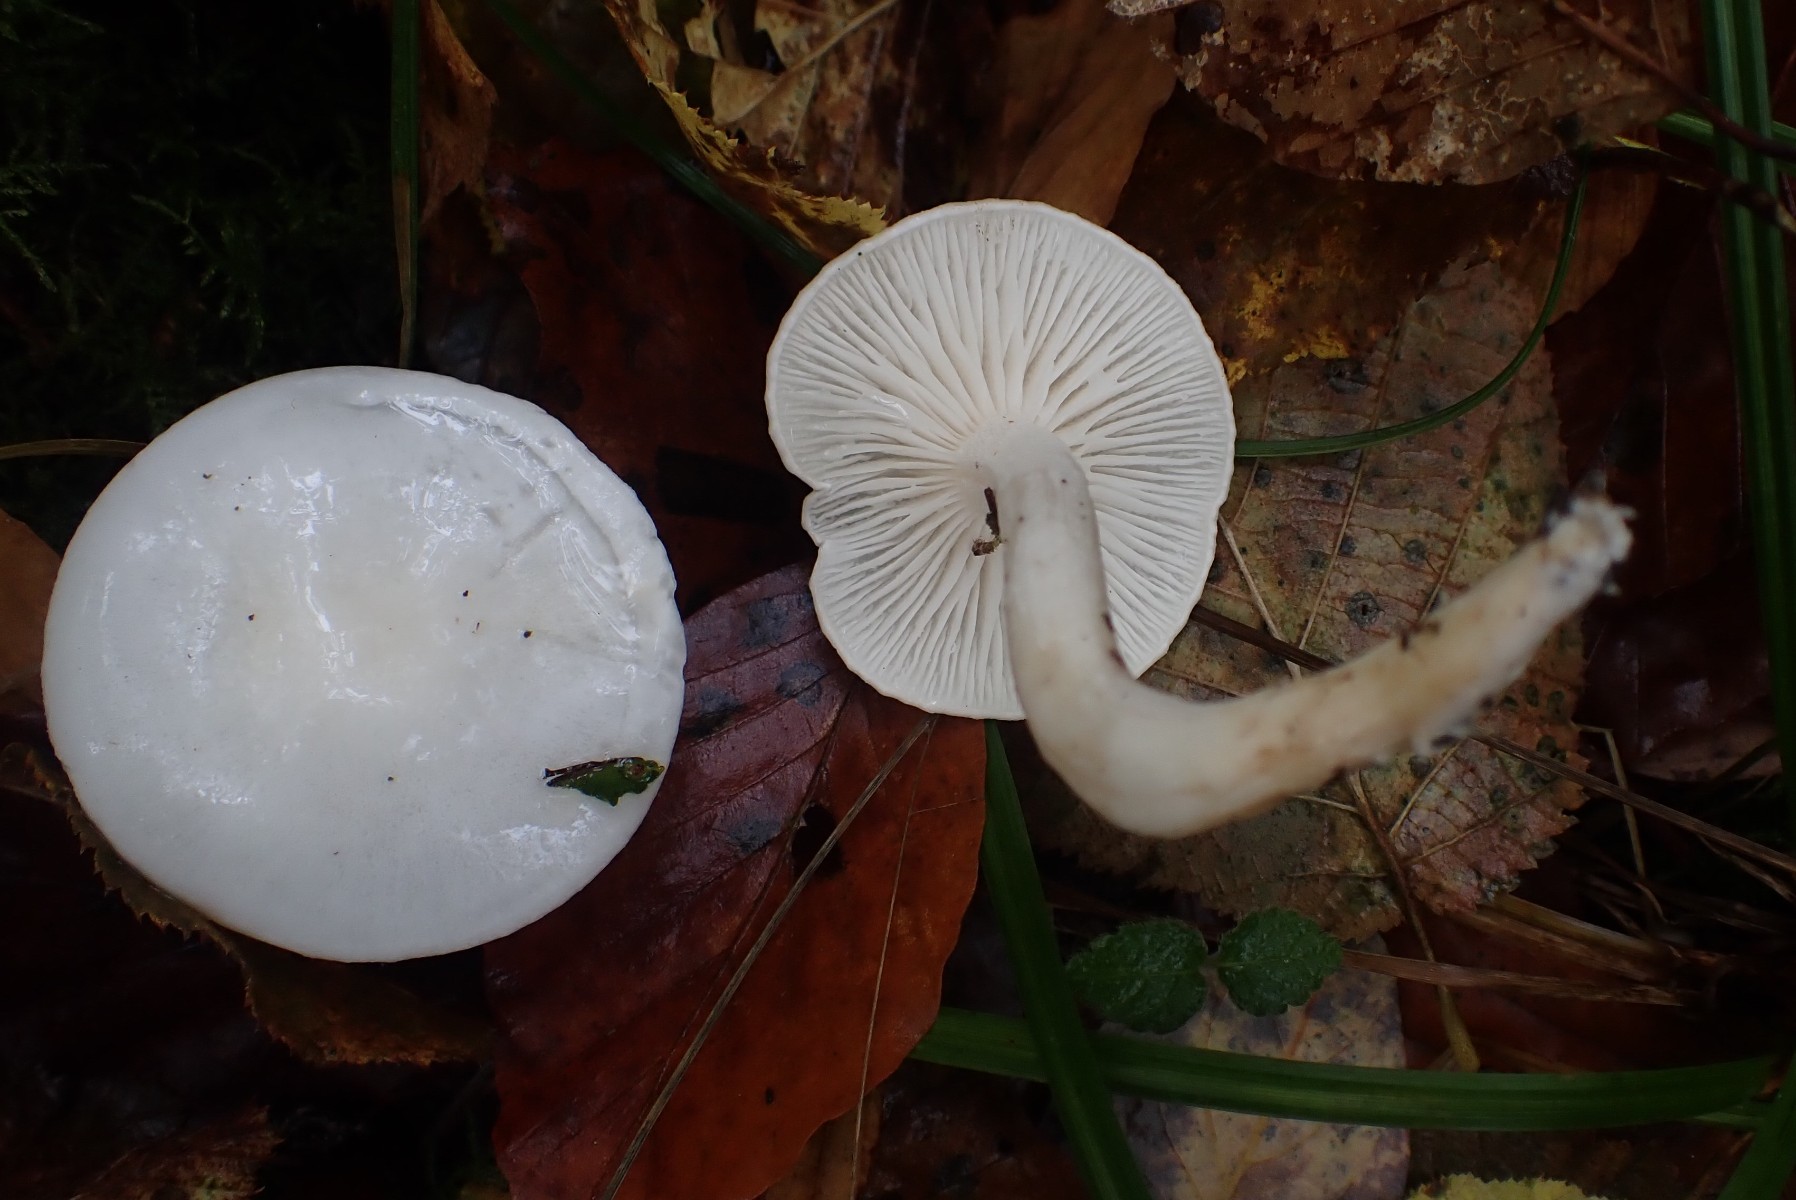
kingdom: Fungi
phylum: Basidiomycota
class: Agaricomycetes
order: Agaricales
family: Hygrophoraceae
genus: Hygrophorus
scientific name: Hygrophorus eburneus
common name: elfenbens-sneglehat
